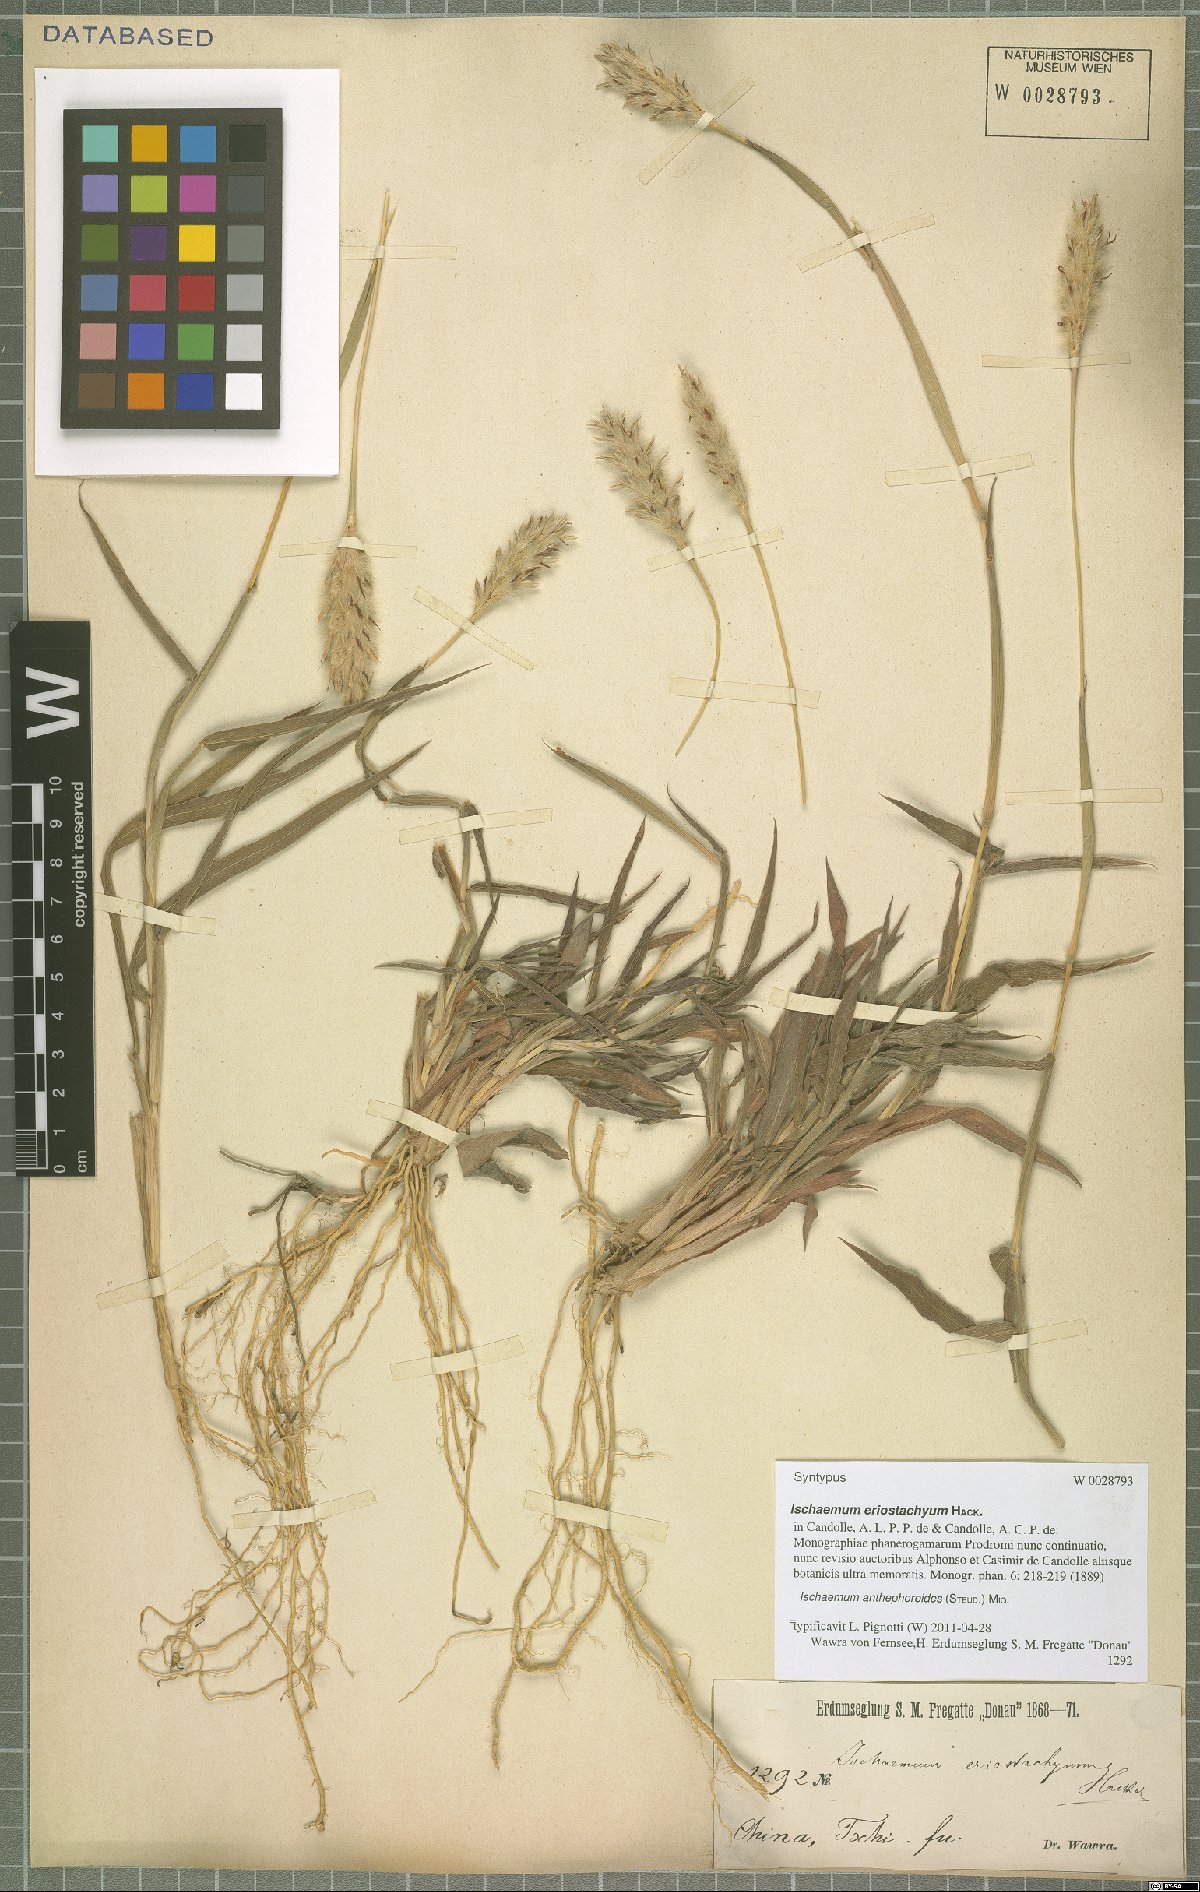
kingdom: Plantae
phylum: Tracheophyta
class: Liliopsida
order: Poales
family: Poaceae
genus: Ischaemum
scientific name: Ischaemum anthephoroides
